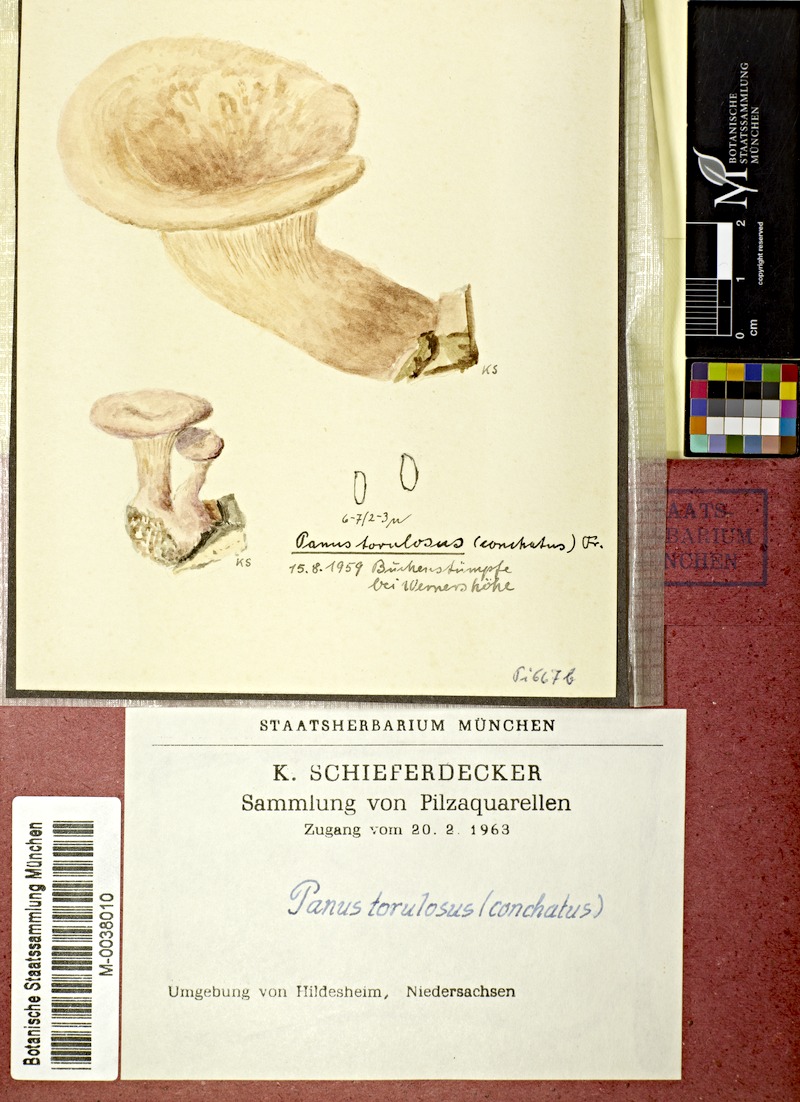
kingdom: Fungi
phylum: Basidiomycota
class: Agaricomycetes
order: Polyporales
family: Panaceae
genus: Panus
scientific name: Panus conchatus
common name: Lilac oysterling
